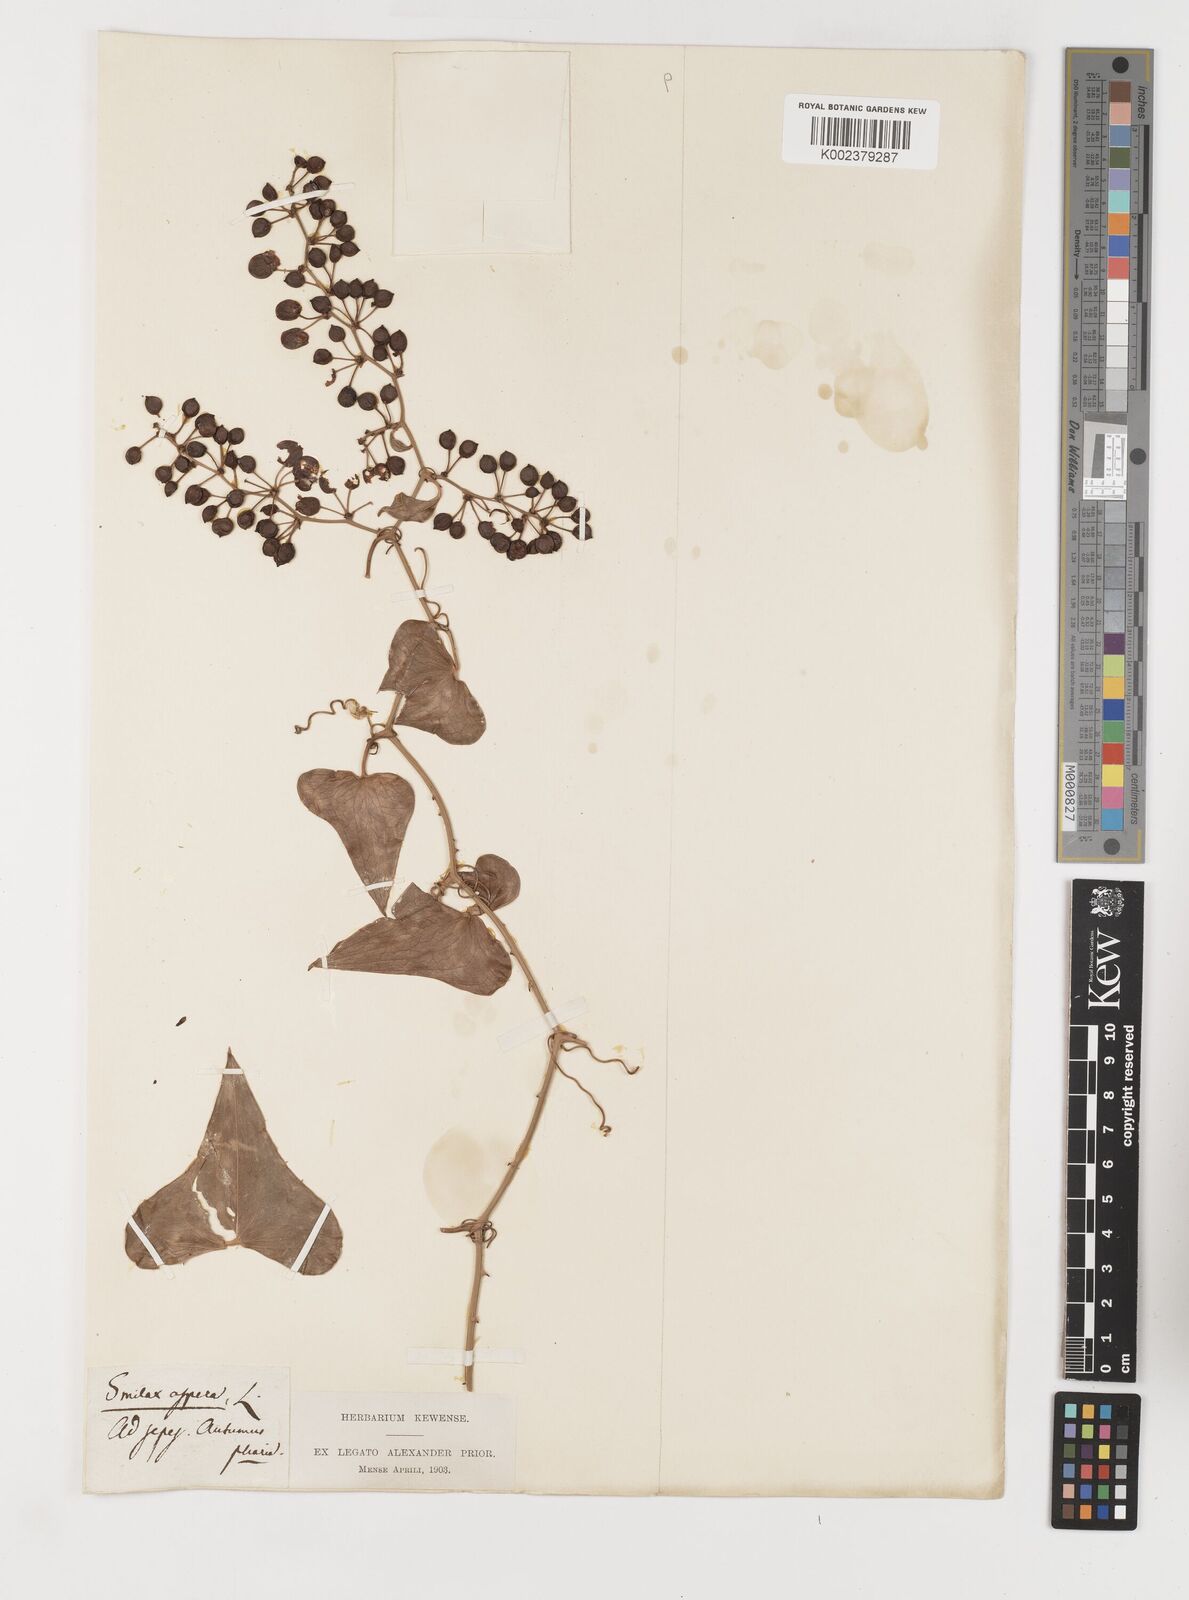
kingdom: Plantae
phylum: Tracheophyta
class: Liliopsida
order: Liliales
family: Smilacaceae
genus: Smilax
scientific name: Smilax rotundifolia
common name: Bullbriar
